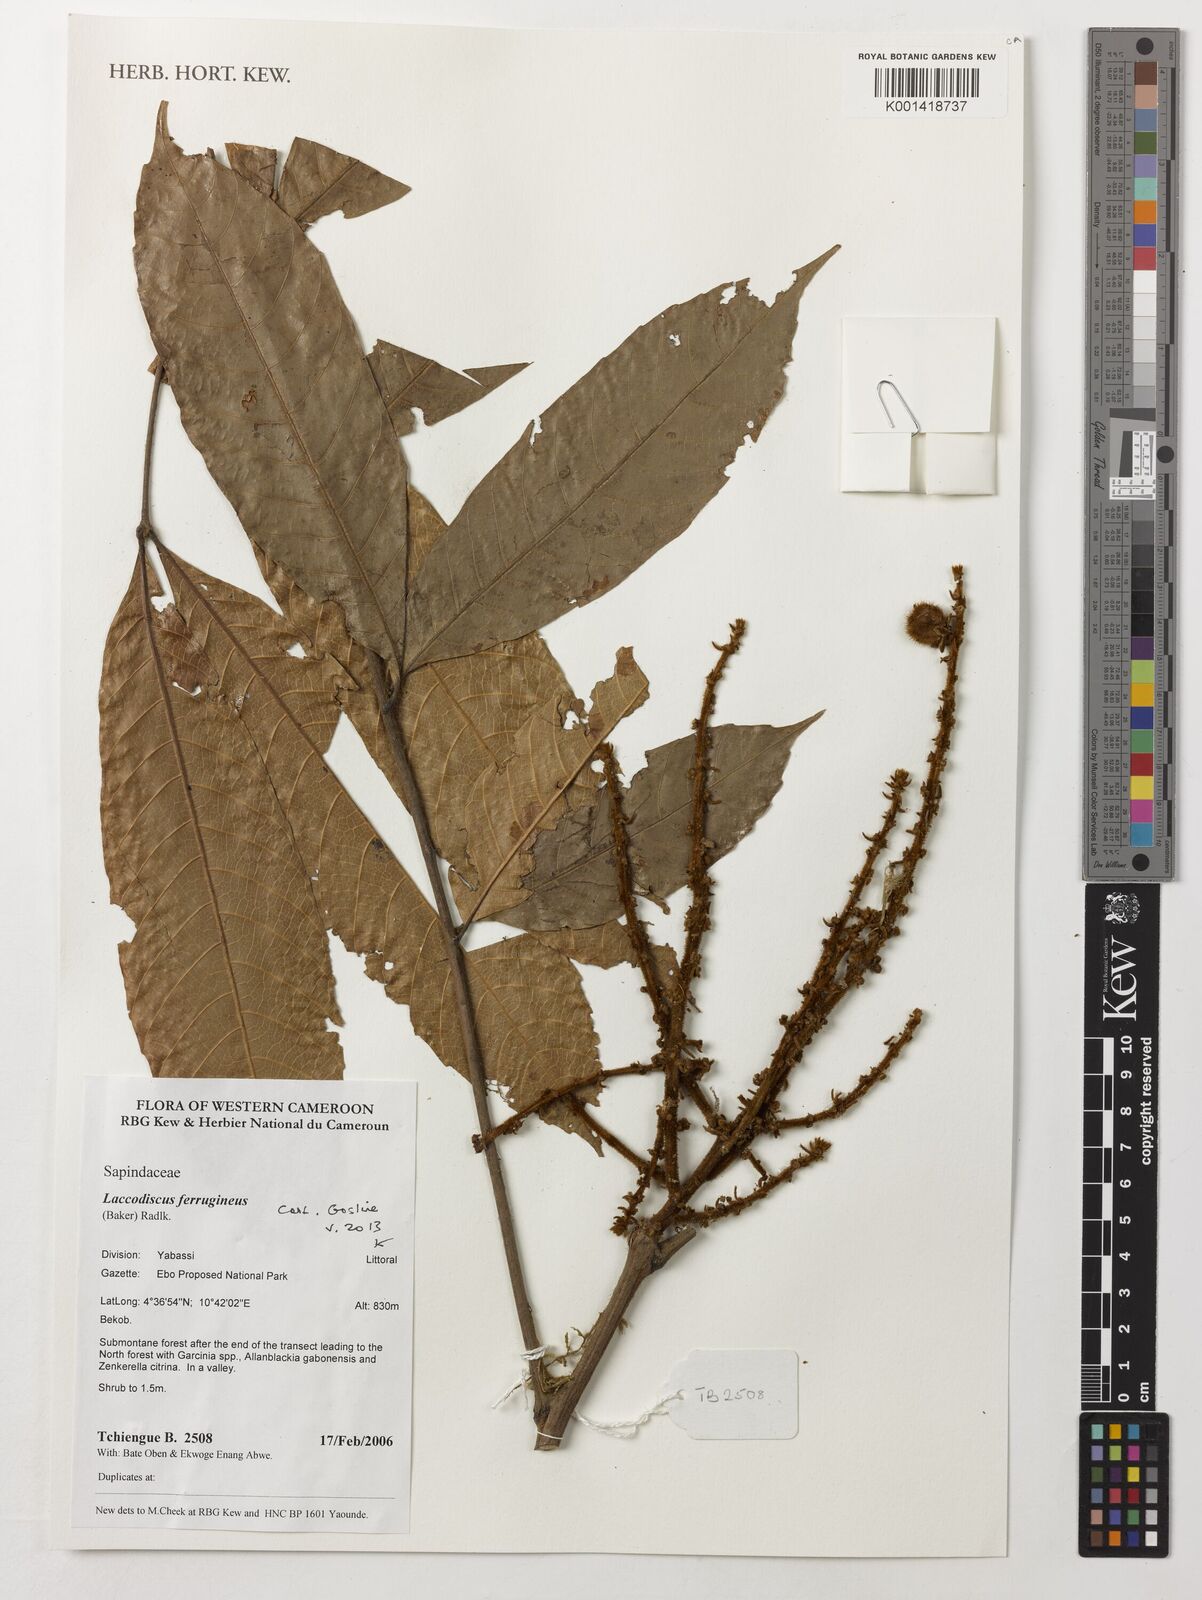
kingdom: Plantae
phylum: Tracheophyta
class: Magnoliopsida
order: Sapindales
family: Sapindaceae
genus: Laccodiscus
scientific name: Laccodiscus ferrugineus
